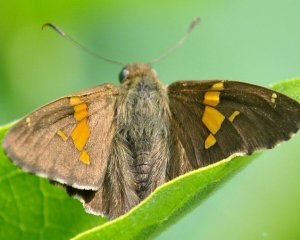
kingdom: Animalia
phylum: Arthropoda
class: Insecta
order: Lepidoptera
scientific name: Lepidoptera
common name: Butterflies
